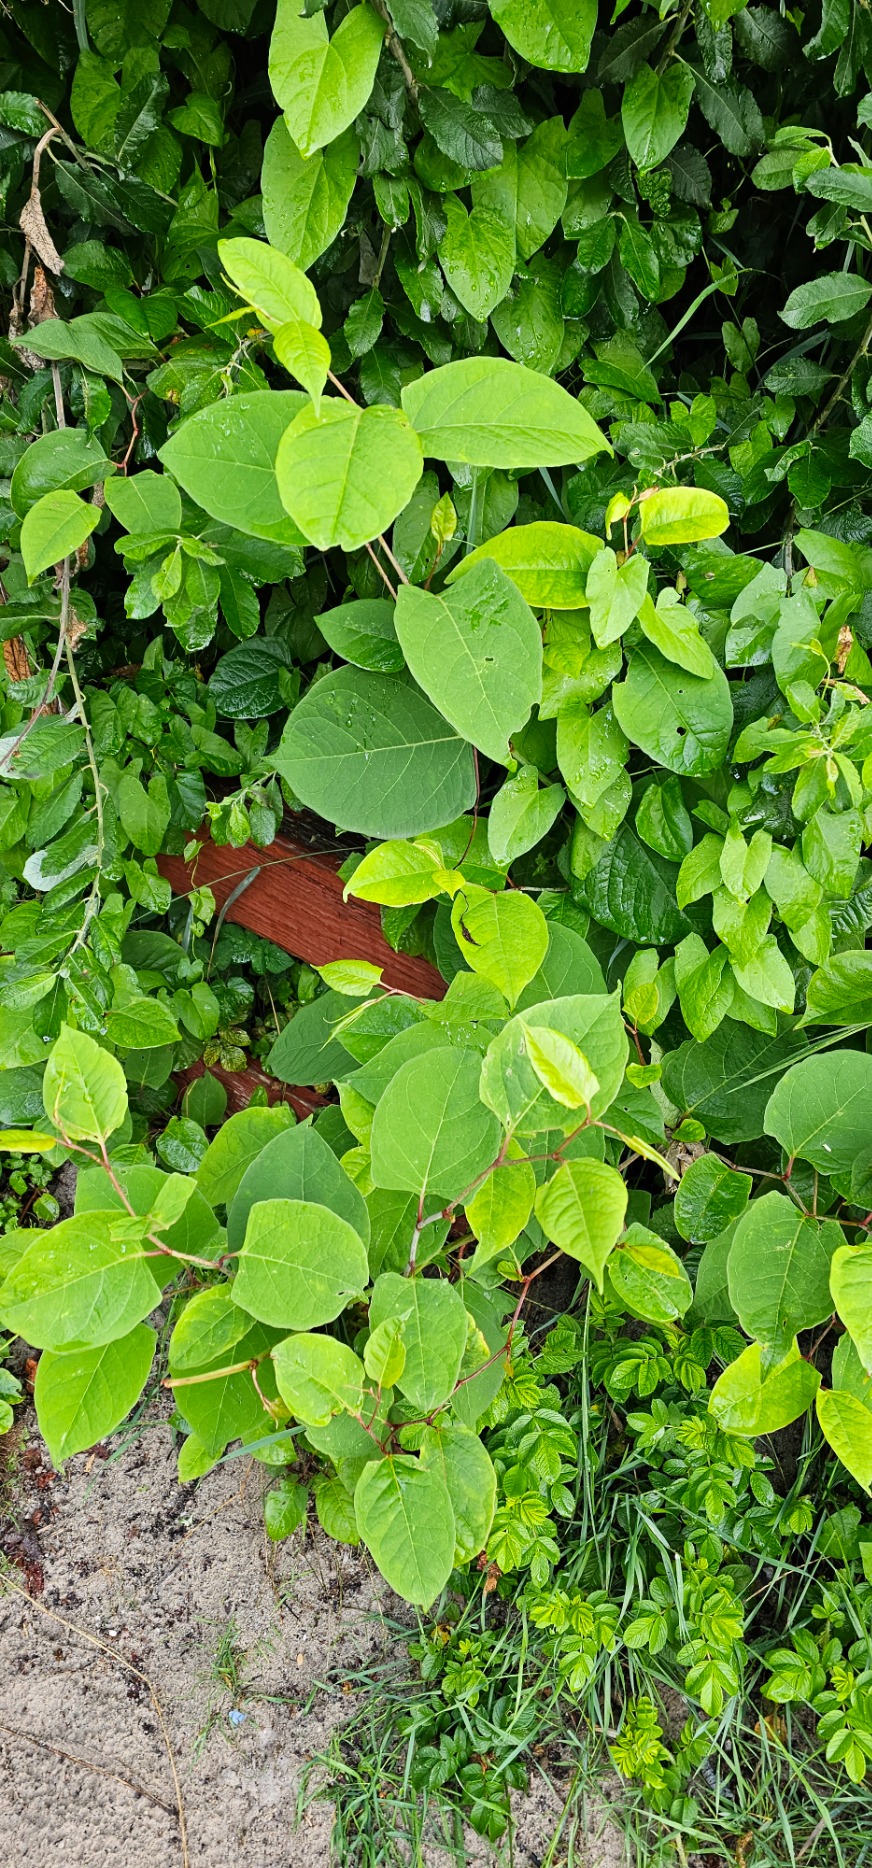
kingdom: Plantae
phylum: Tracheophyta
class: Magnoliopsida
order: Caryophyllales
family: Polygonaceae
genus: Reynoutria
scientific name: Reynoutria japonica
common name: Japan-pileurt
